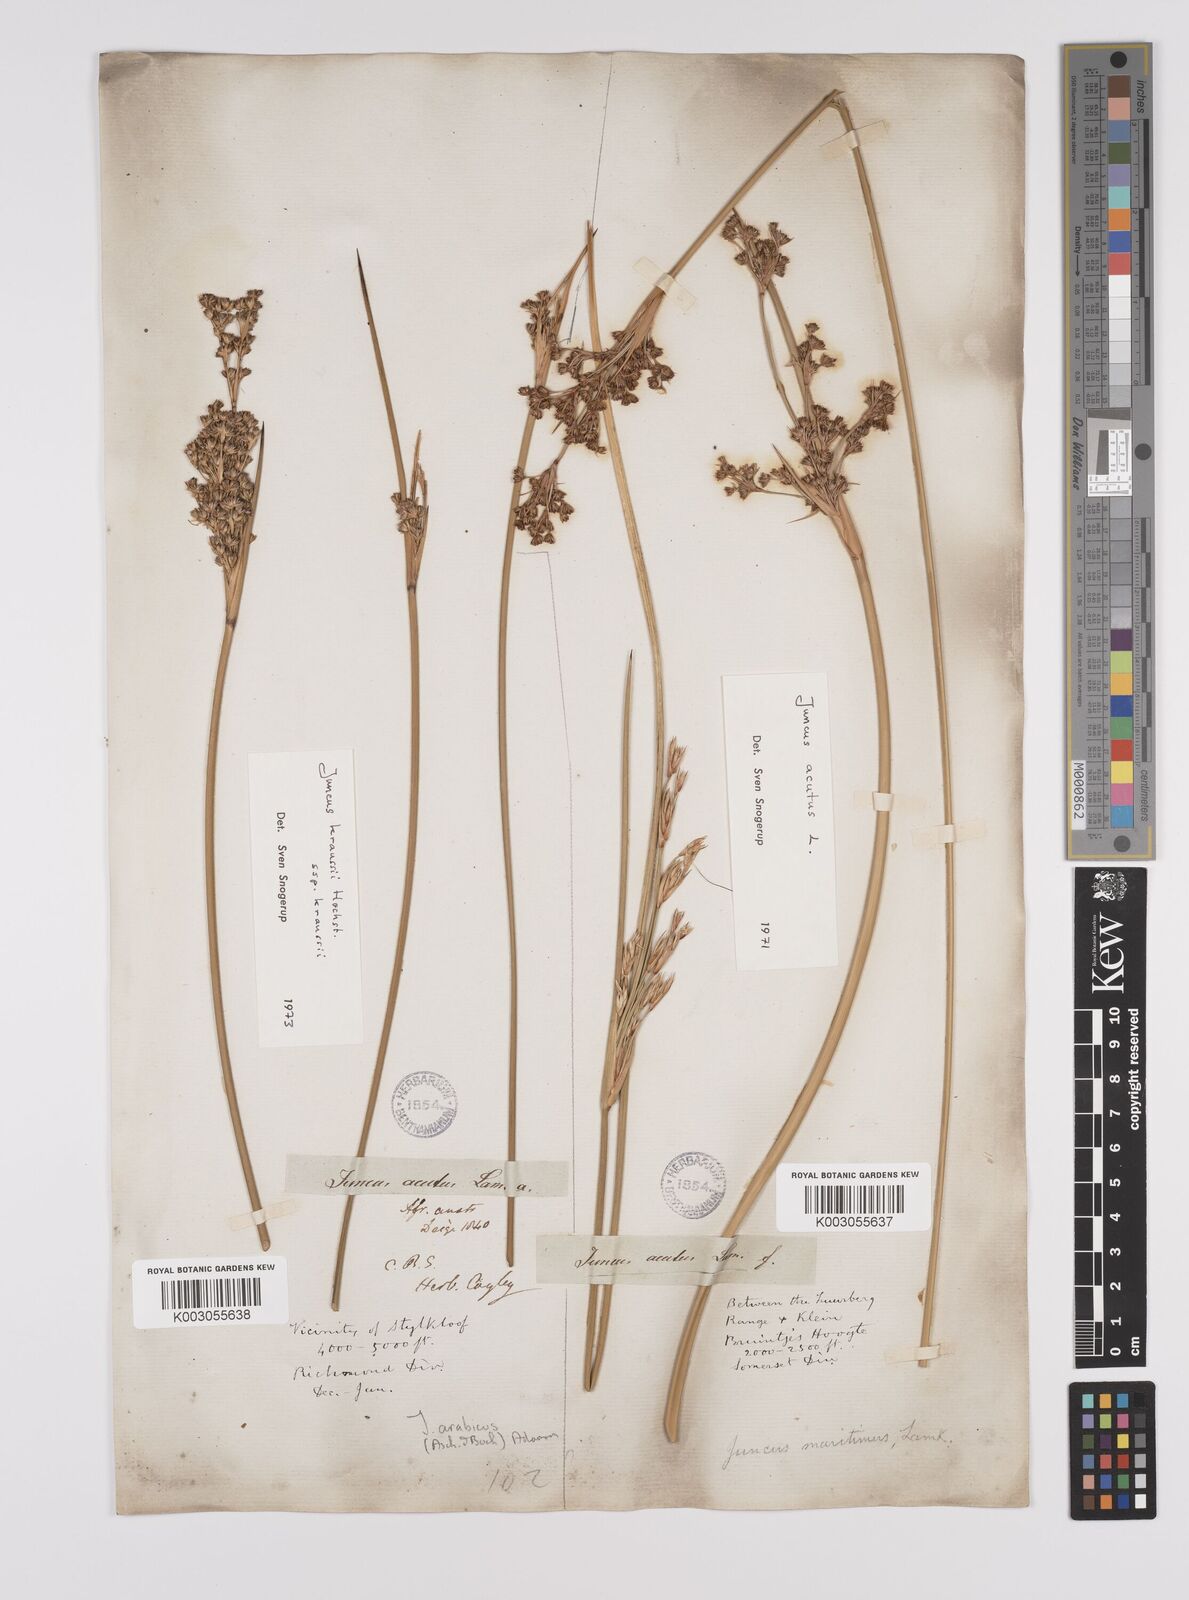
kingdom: Plantae
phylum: Tracheophyta
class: Liliopsida
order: Poales
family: Juncaceae
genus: Juncus
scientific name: Juncus acutus
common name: Sharp rush
